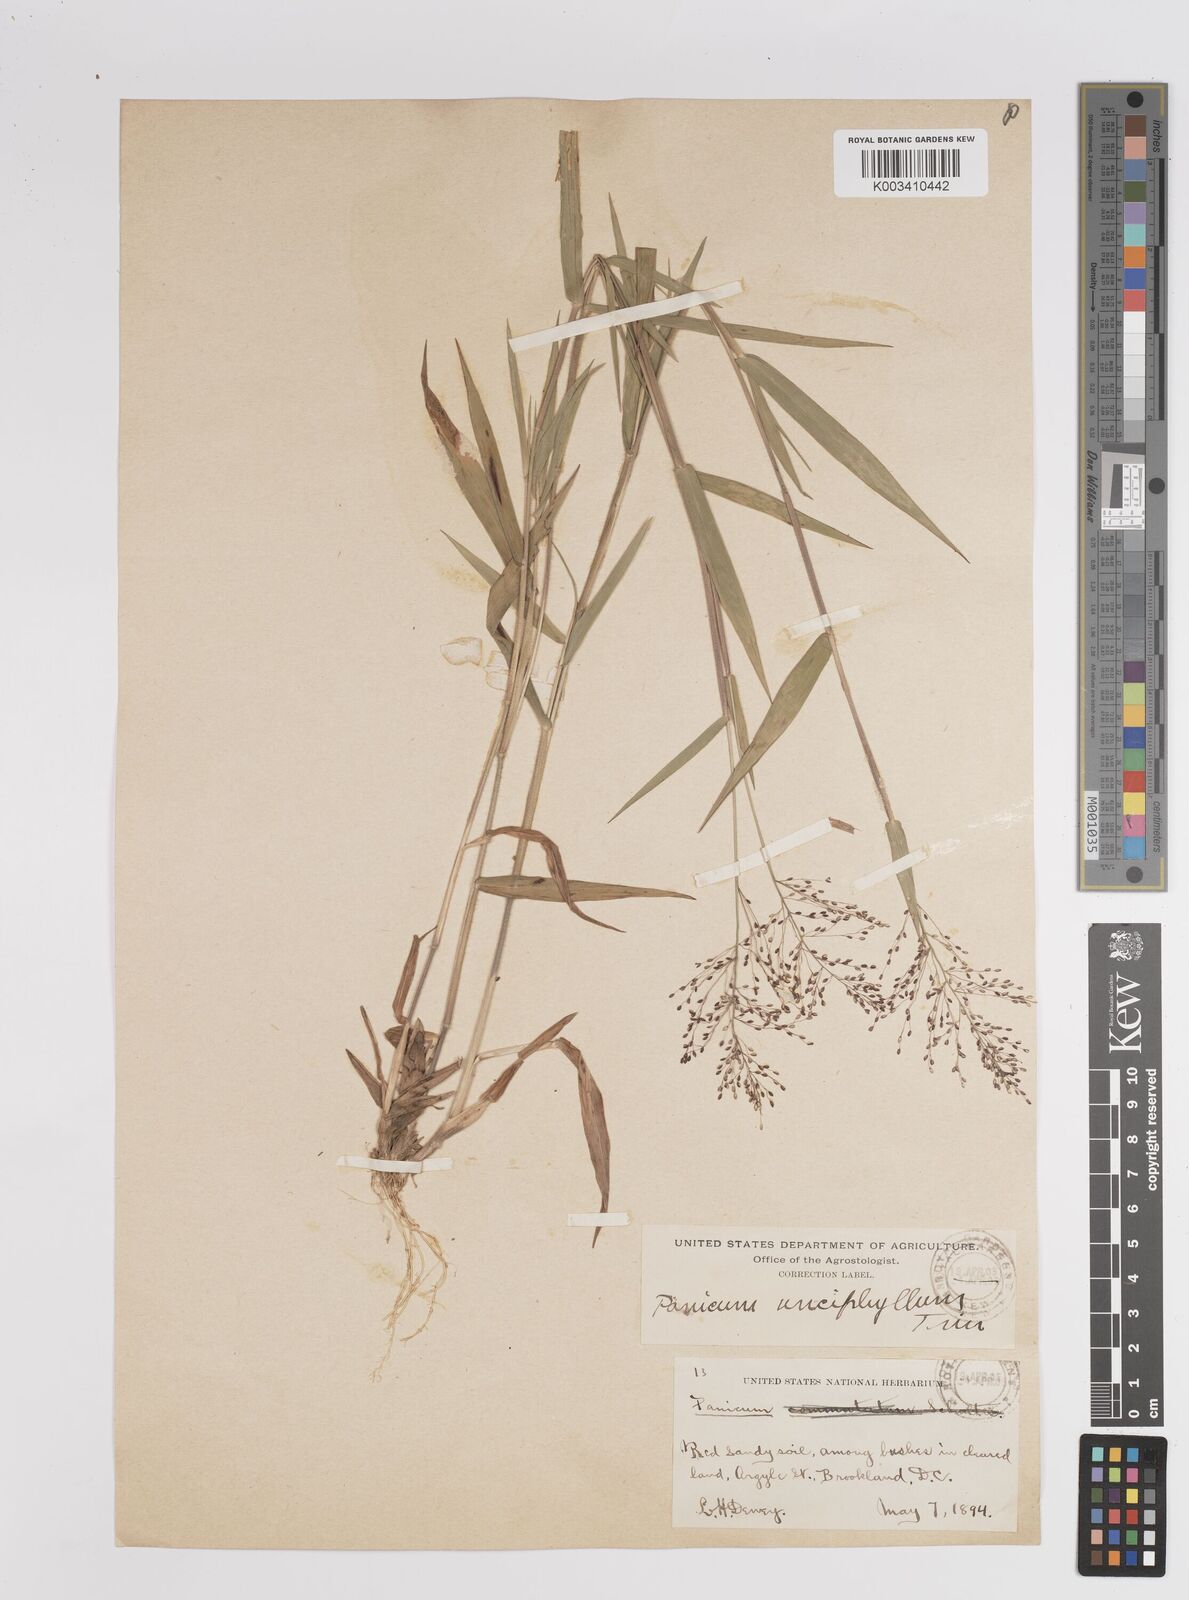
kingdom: Plantae
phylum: Tracheophyta
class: Liliopsida
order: Poales
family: Poaceae
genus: Dichanthelium
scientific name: Dichanthelium ensifolium
